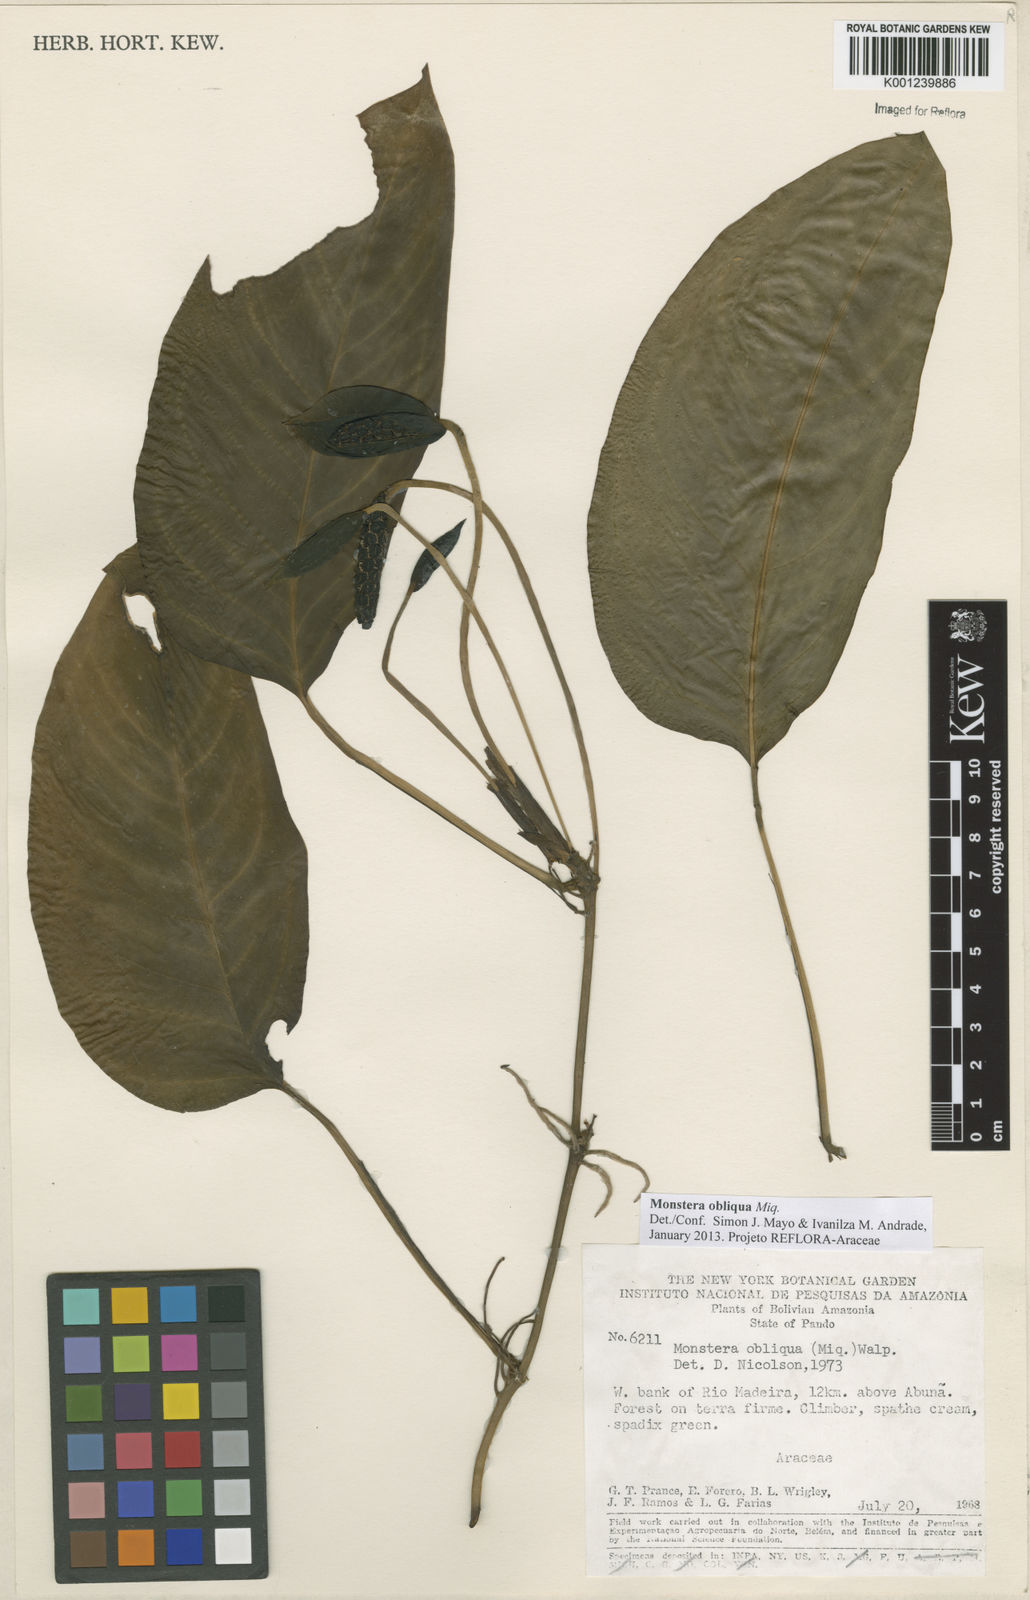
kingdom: Plantae
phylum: Tracheophyta
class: Liliopsida
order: Alismatales
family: Araceae
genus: Monstera
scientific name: Monstera obliqua
